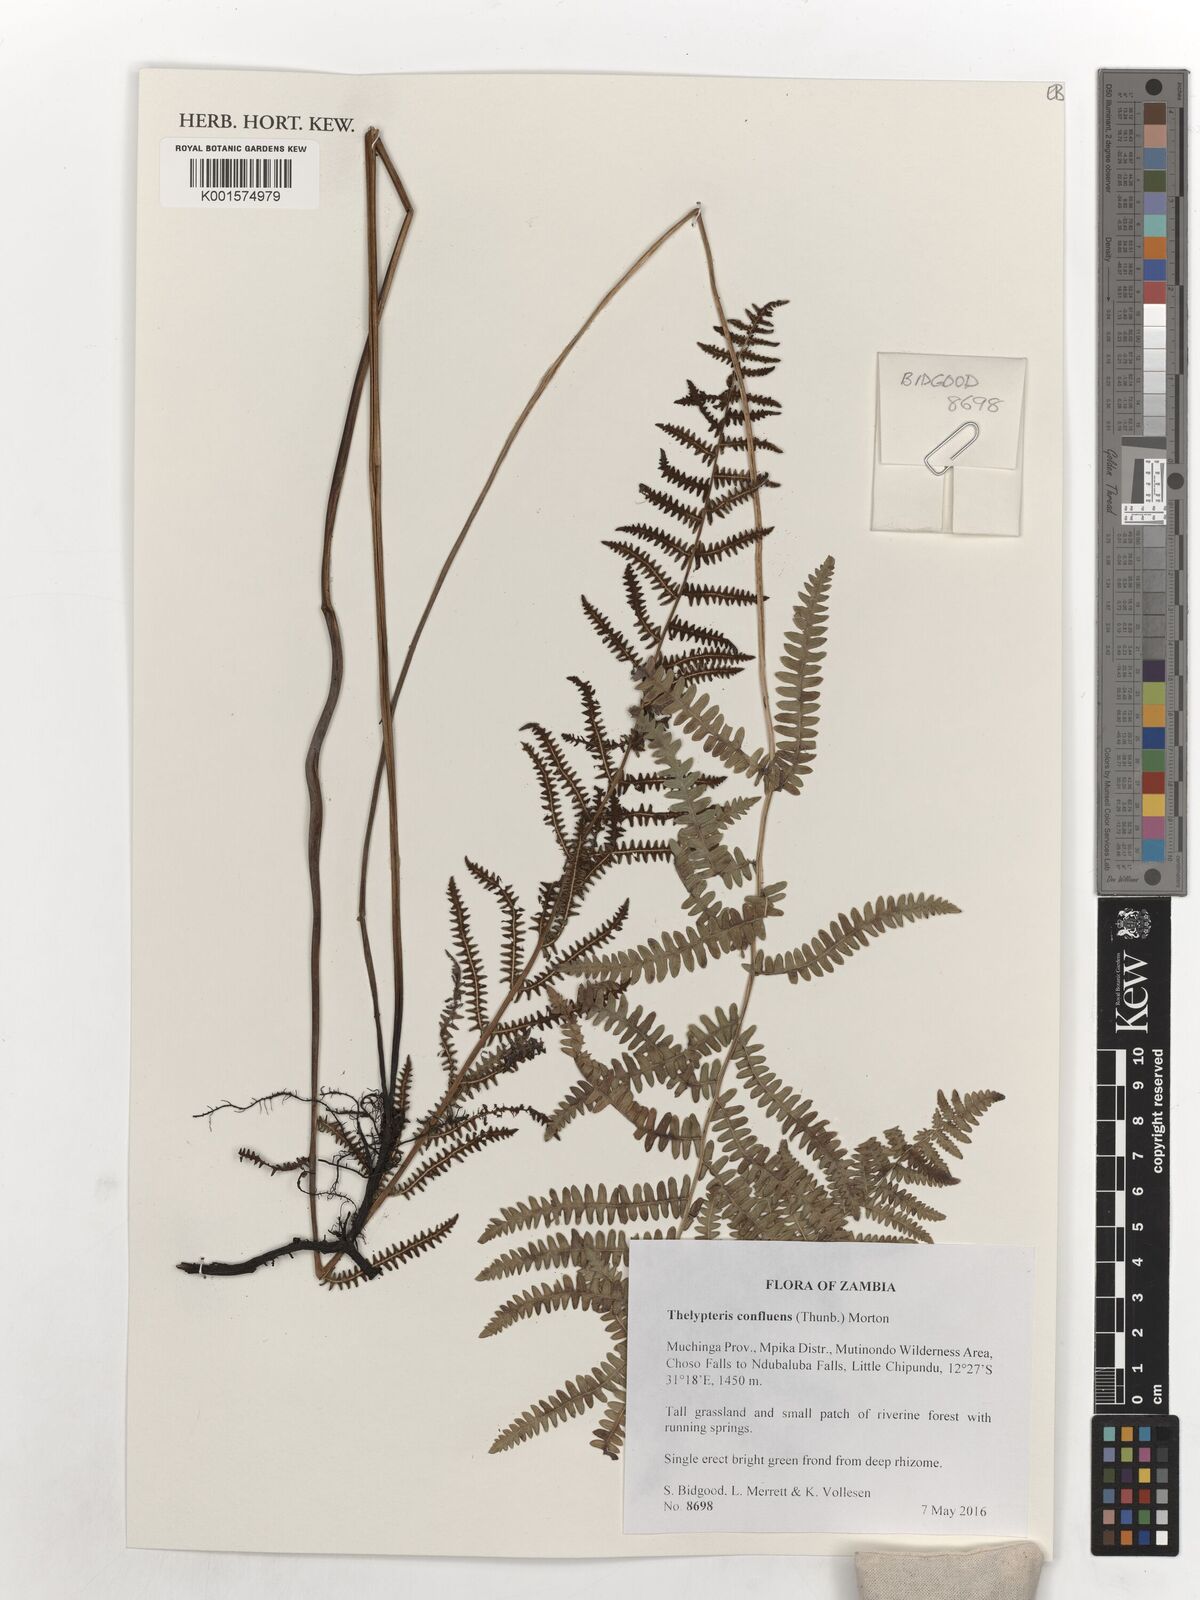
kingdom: Plantae
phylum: Tracheophyta
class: Polypodiopsida
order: Polypodiales
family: Thelypteridaceae
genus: Thelypteris
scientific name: Thelypteris confluens
